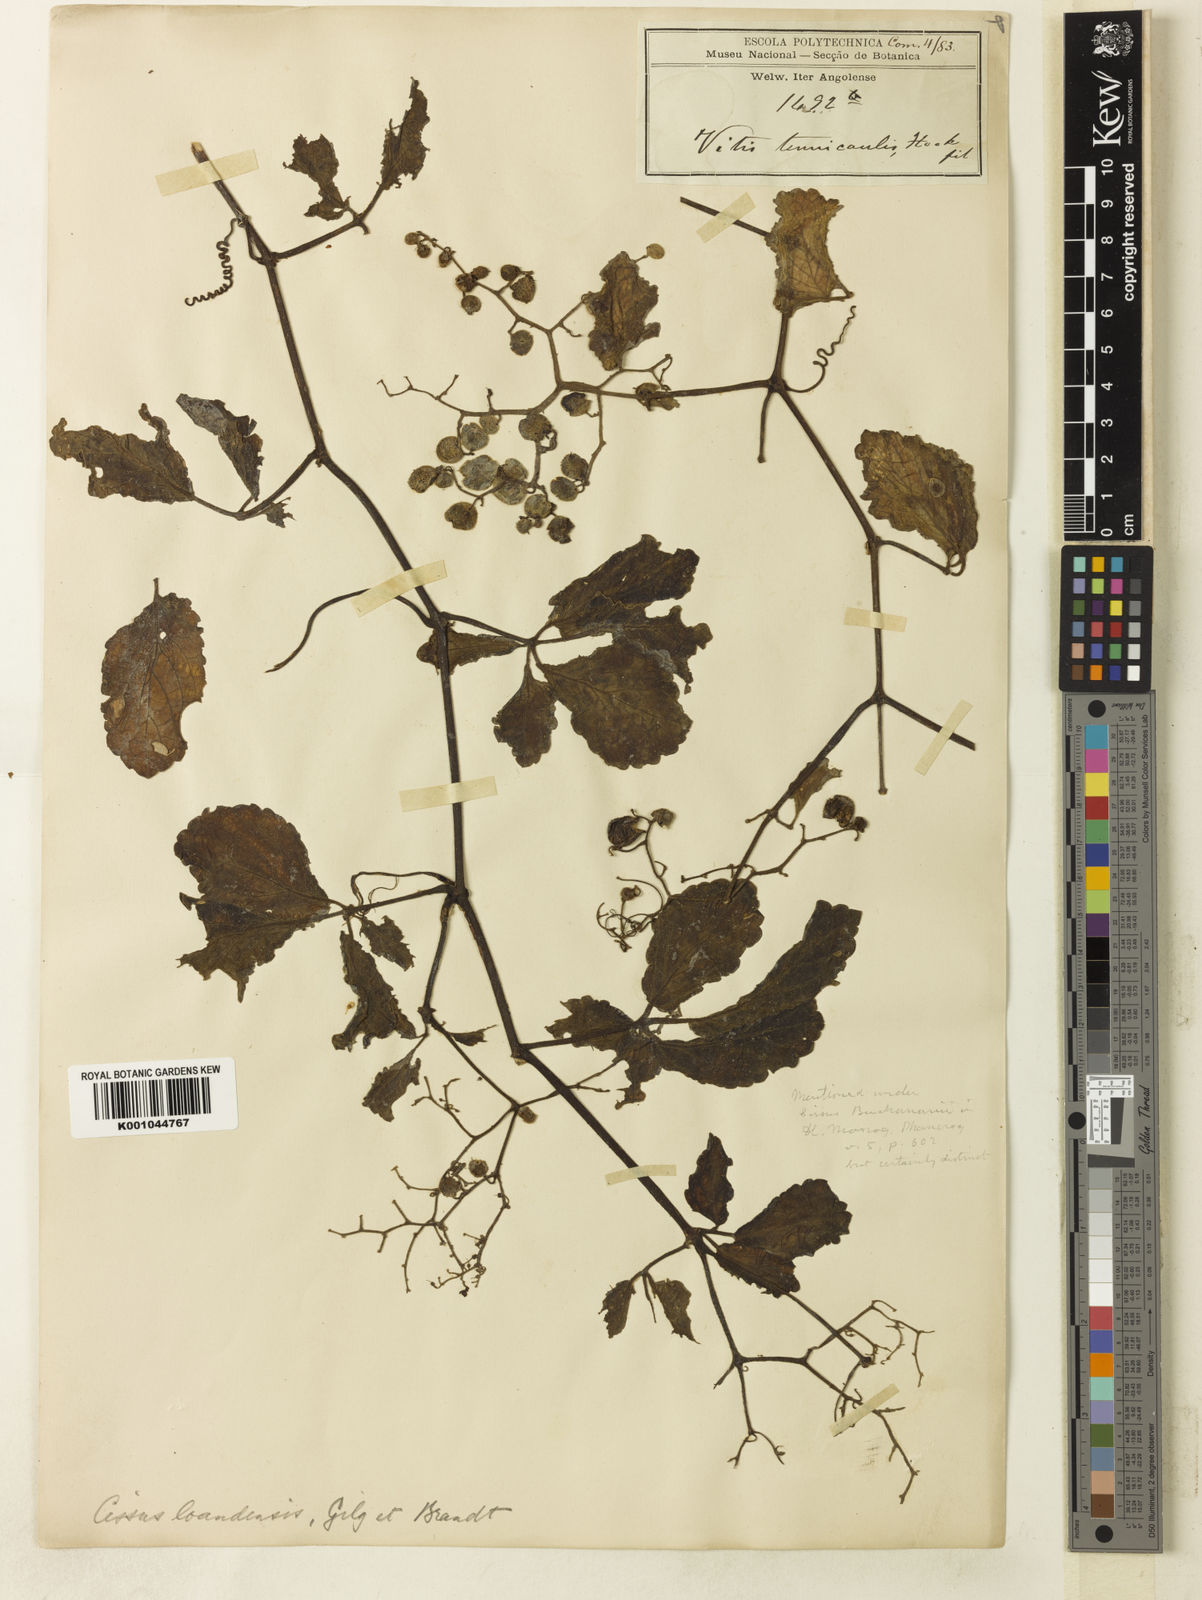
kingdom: Plantae
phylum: Tracheophyta
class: Magnoliopsida
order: Vitales
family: Vitaceae
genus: Cyphostemma
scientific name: Cyphostemma crassiusculum
